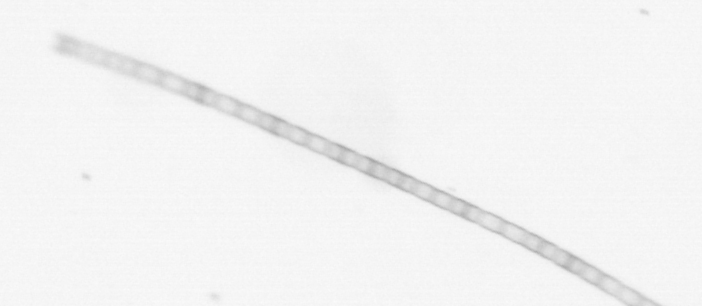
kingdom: Chromista
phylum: Ochrophyta
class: Bacillariophyceae
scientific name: Bacillariophyceae
